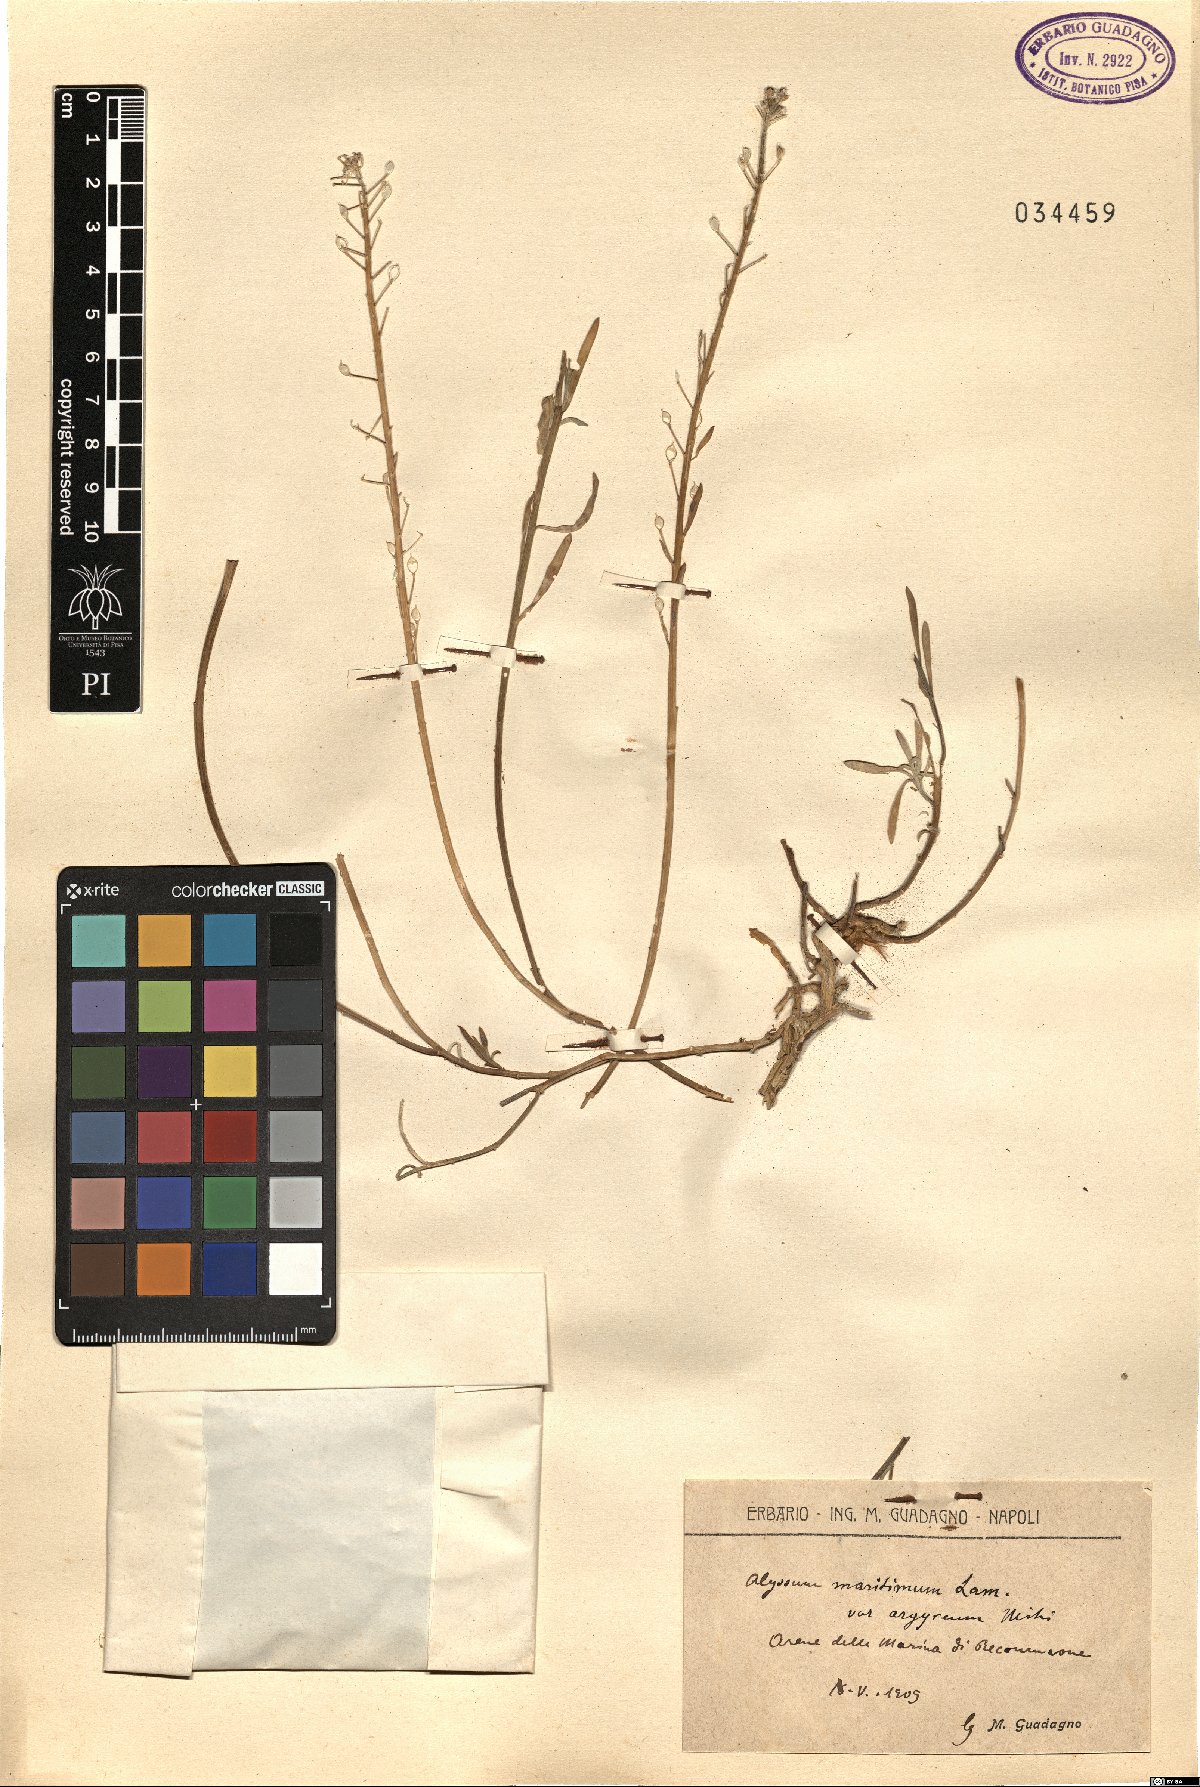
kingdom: Plantae
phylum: Tracheophyta
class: Magnoliopsida
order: Brassicales
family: Brassicaceae
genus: Lobularia
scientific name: Lobularia maritima
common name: Sweet alison
